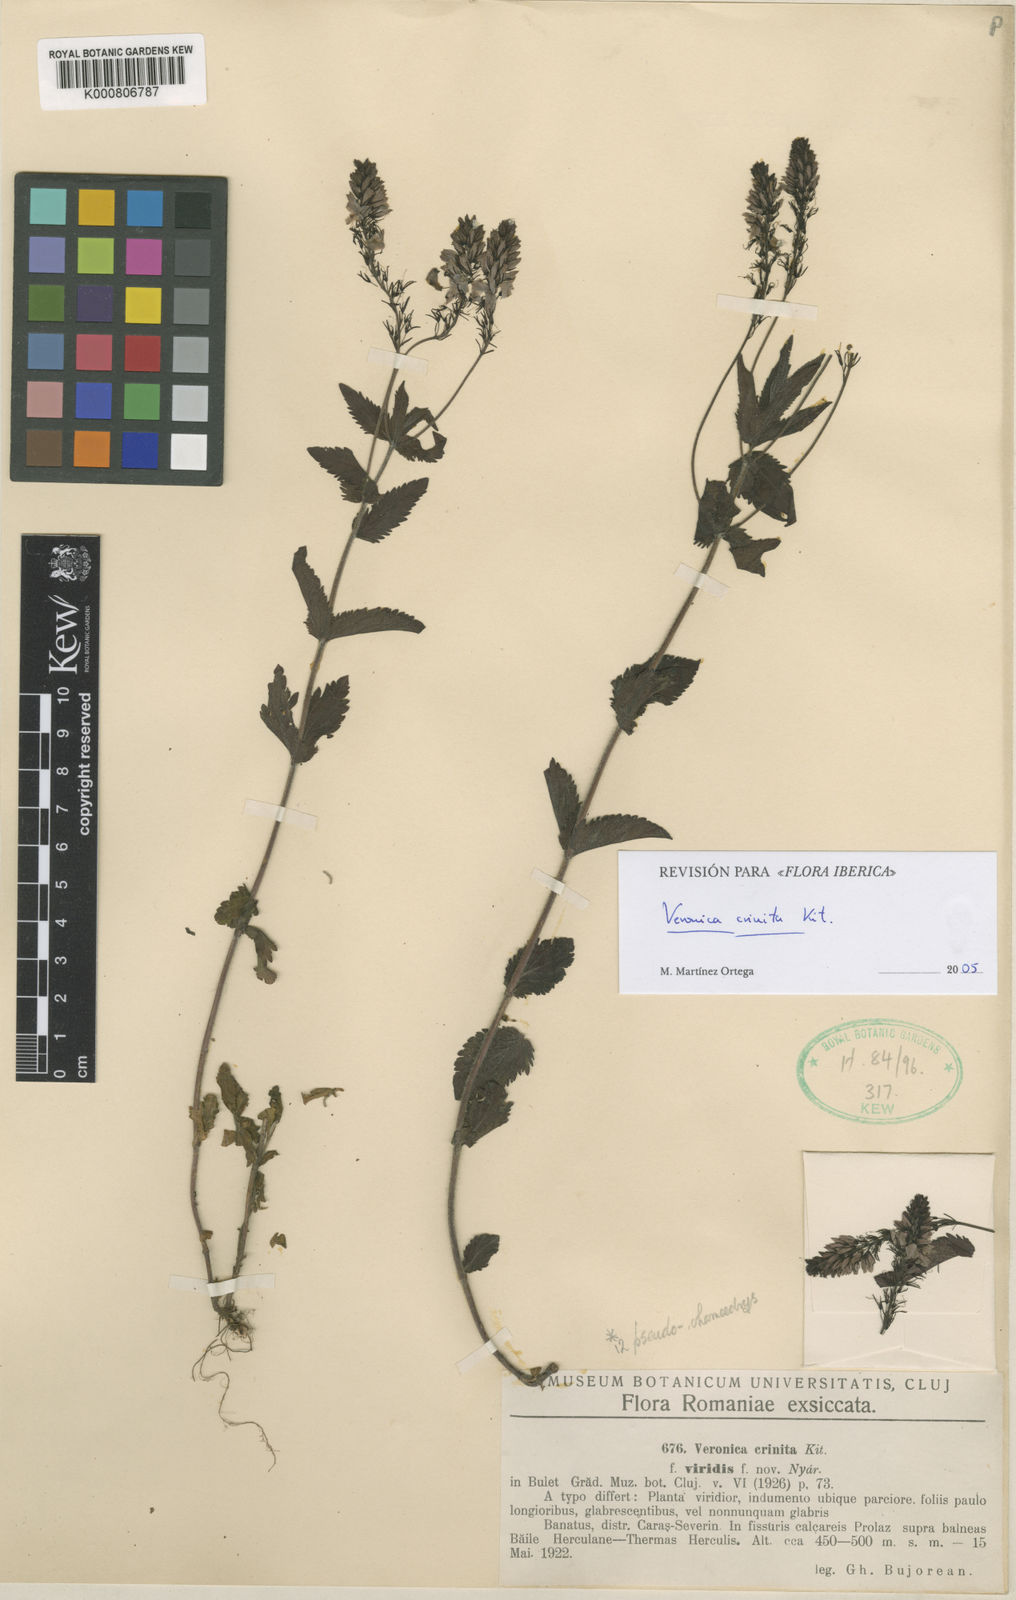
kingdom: Plantae
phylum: Tracheophyta
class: Magnoliopsida
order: Lamiales
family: Plantaginaceae
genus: Veronica
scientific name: Veronica teucrium
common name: Large speedwell
